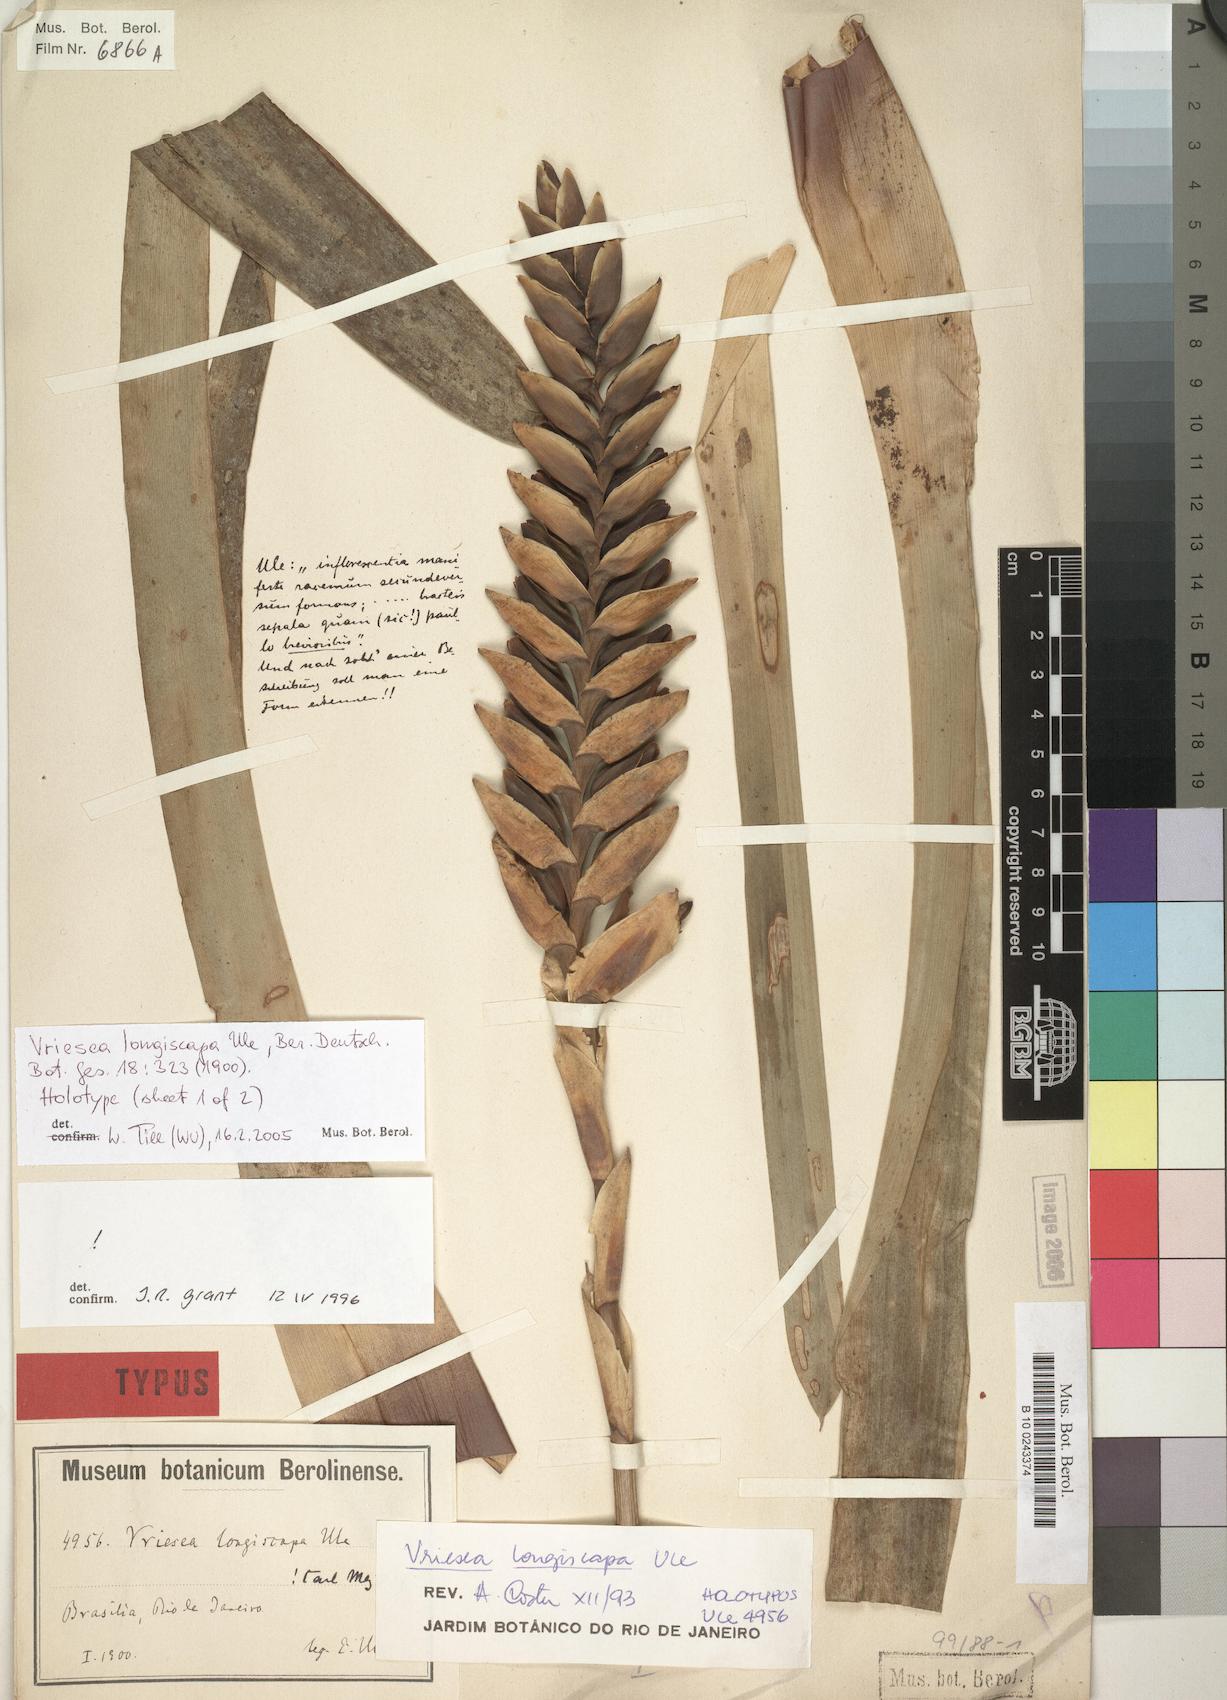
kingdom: Plantae
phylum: Tracheophyta
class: Liliopsida
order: Poales
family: Bromeliaceae
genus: Vriesea
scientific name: Vriesea longiscapa
